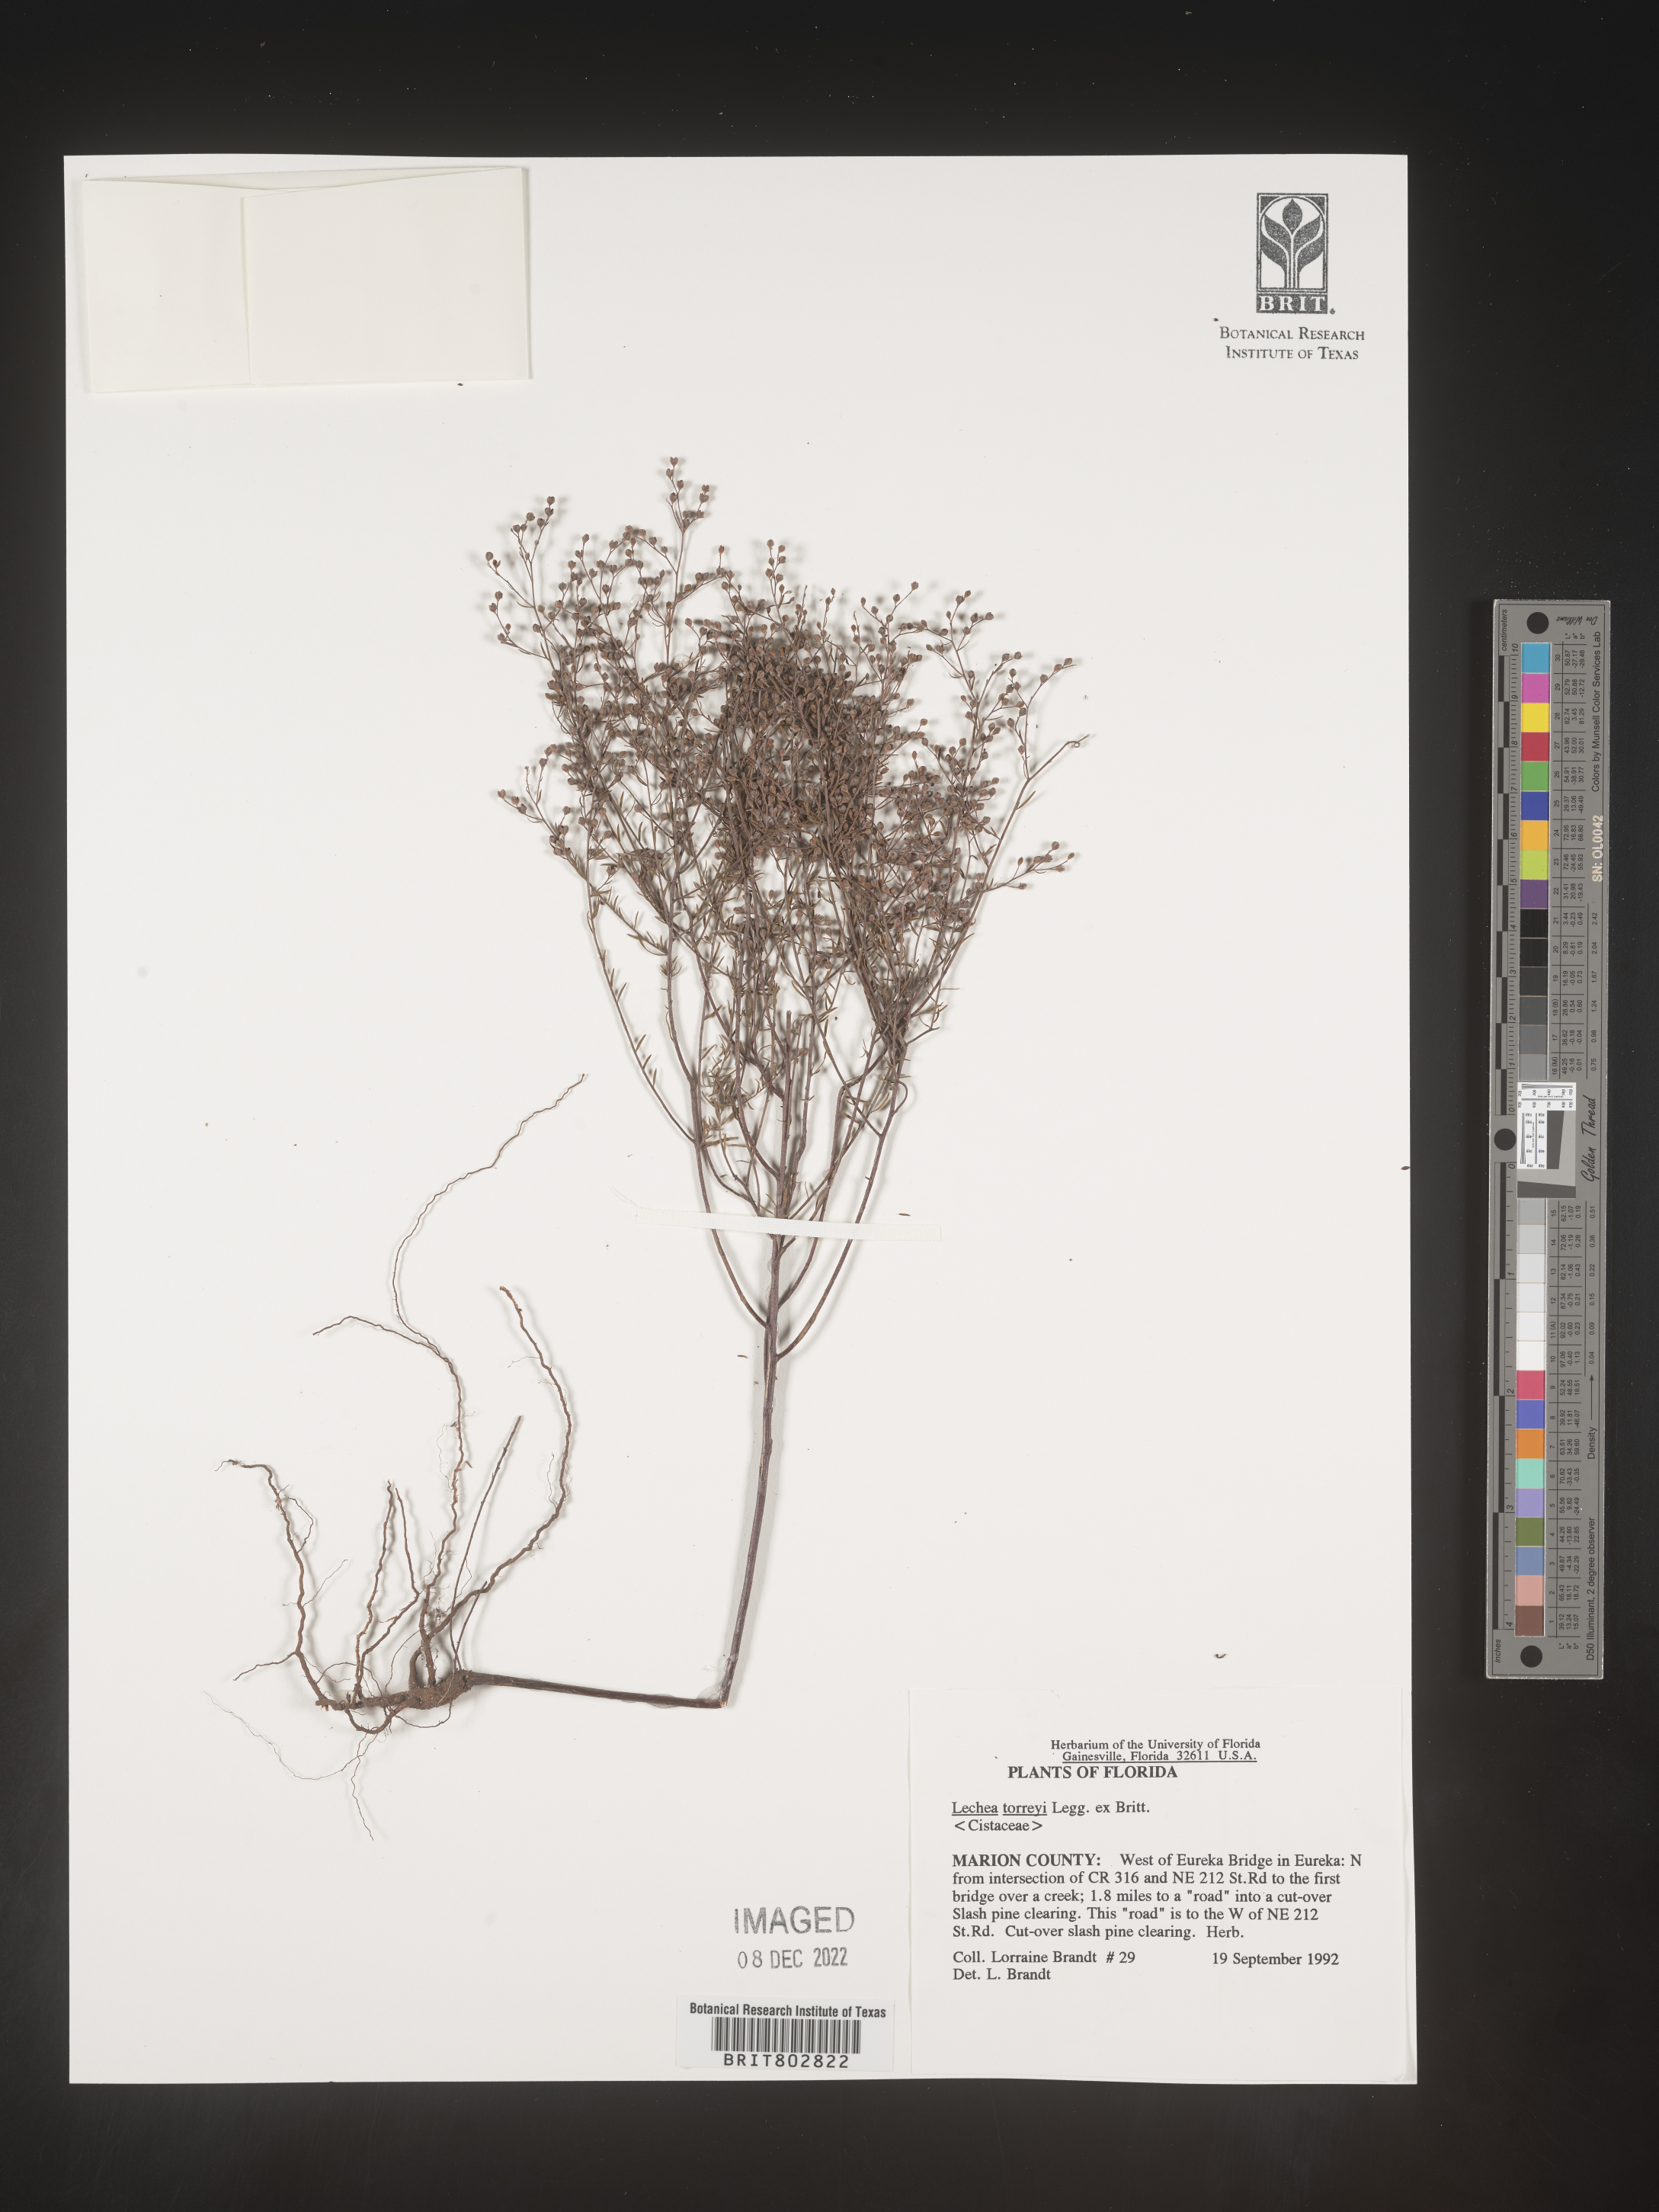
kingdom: Plantae
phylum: Tracheophyta
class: Magnoliopsida
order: Malvales
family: Cistaceae
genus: Lechea
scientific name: Lechea torreyi
